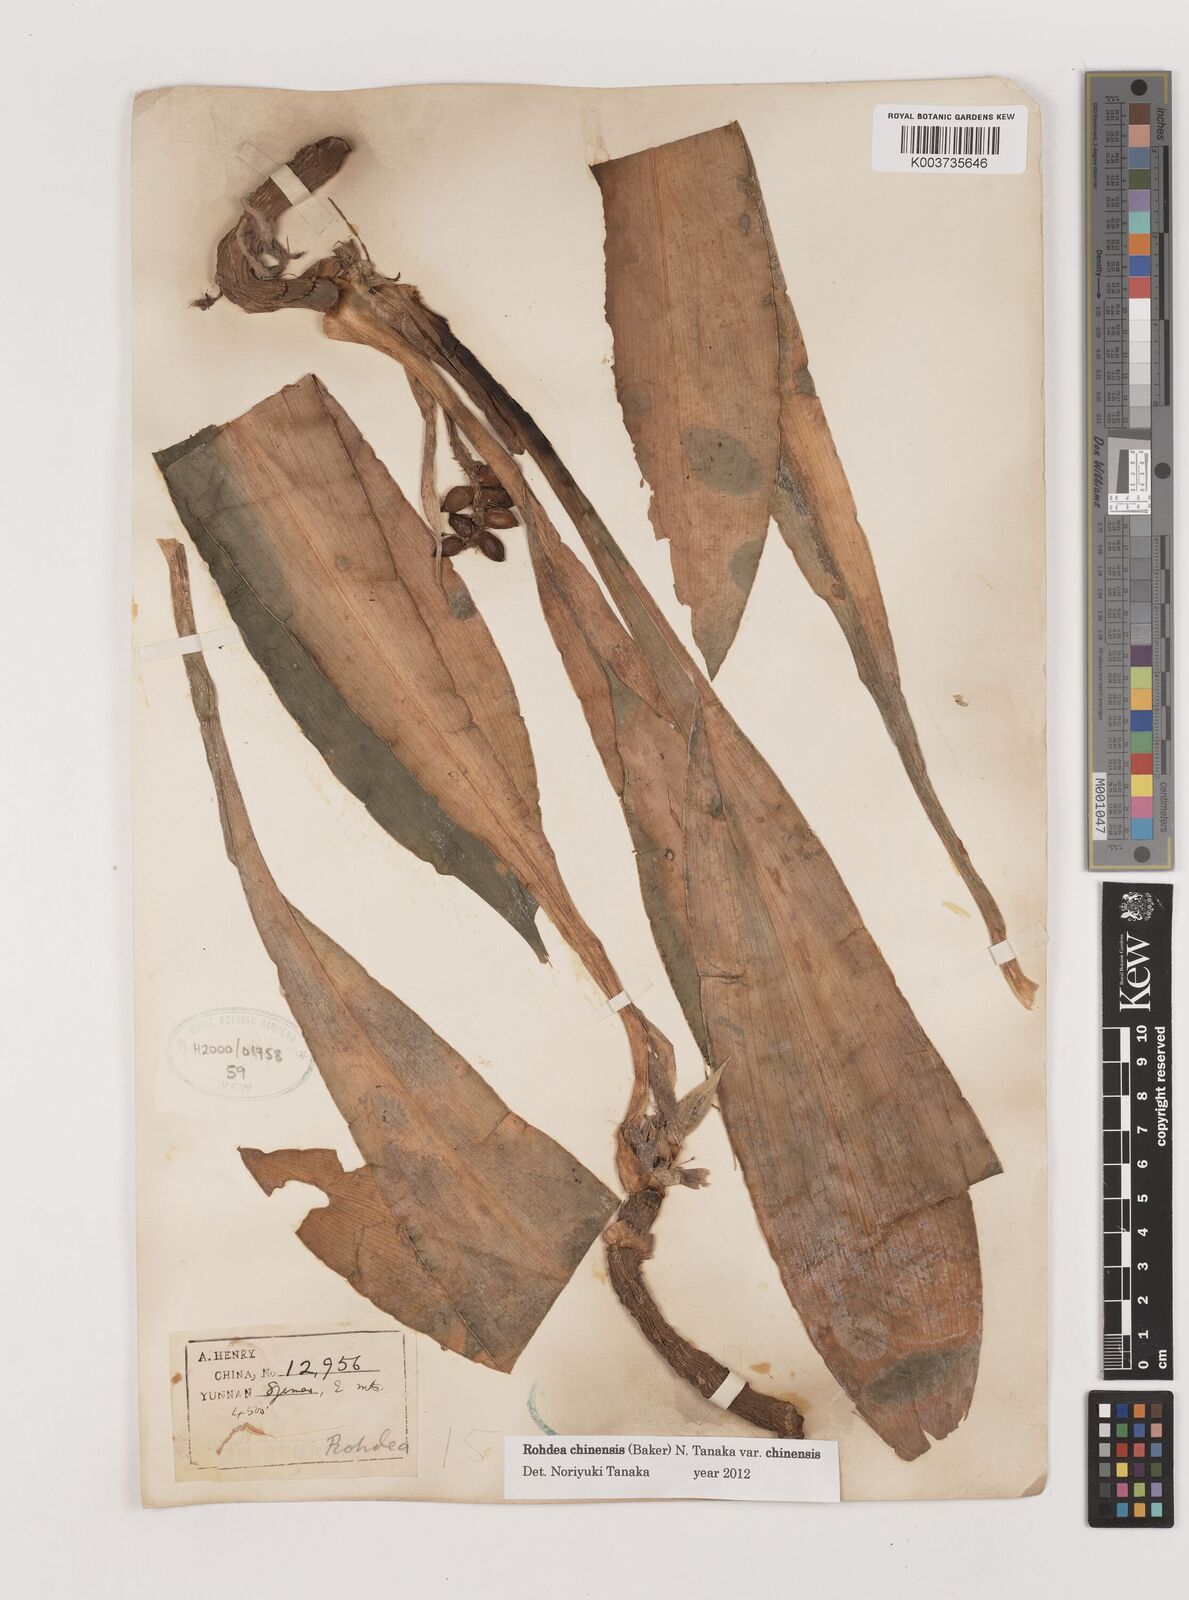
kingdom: Plantae
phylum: Tracheophyta
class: Liliopsida
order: Asparagales
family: Asparagaceae
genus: Rohdea
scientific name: Rohdea fargesii
